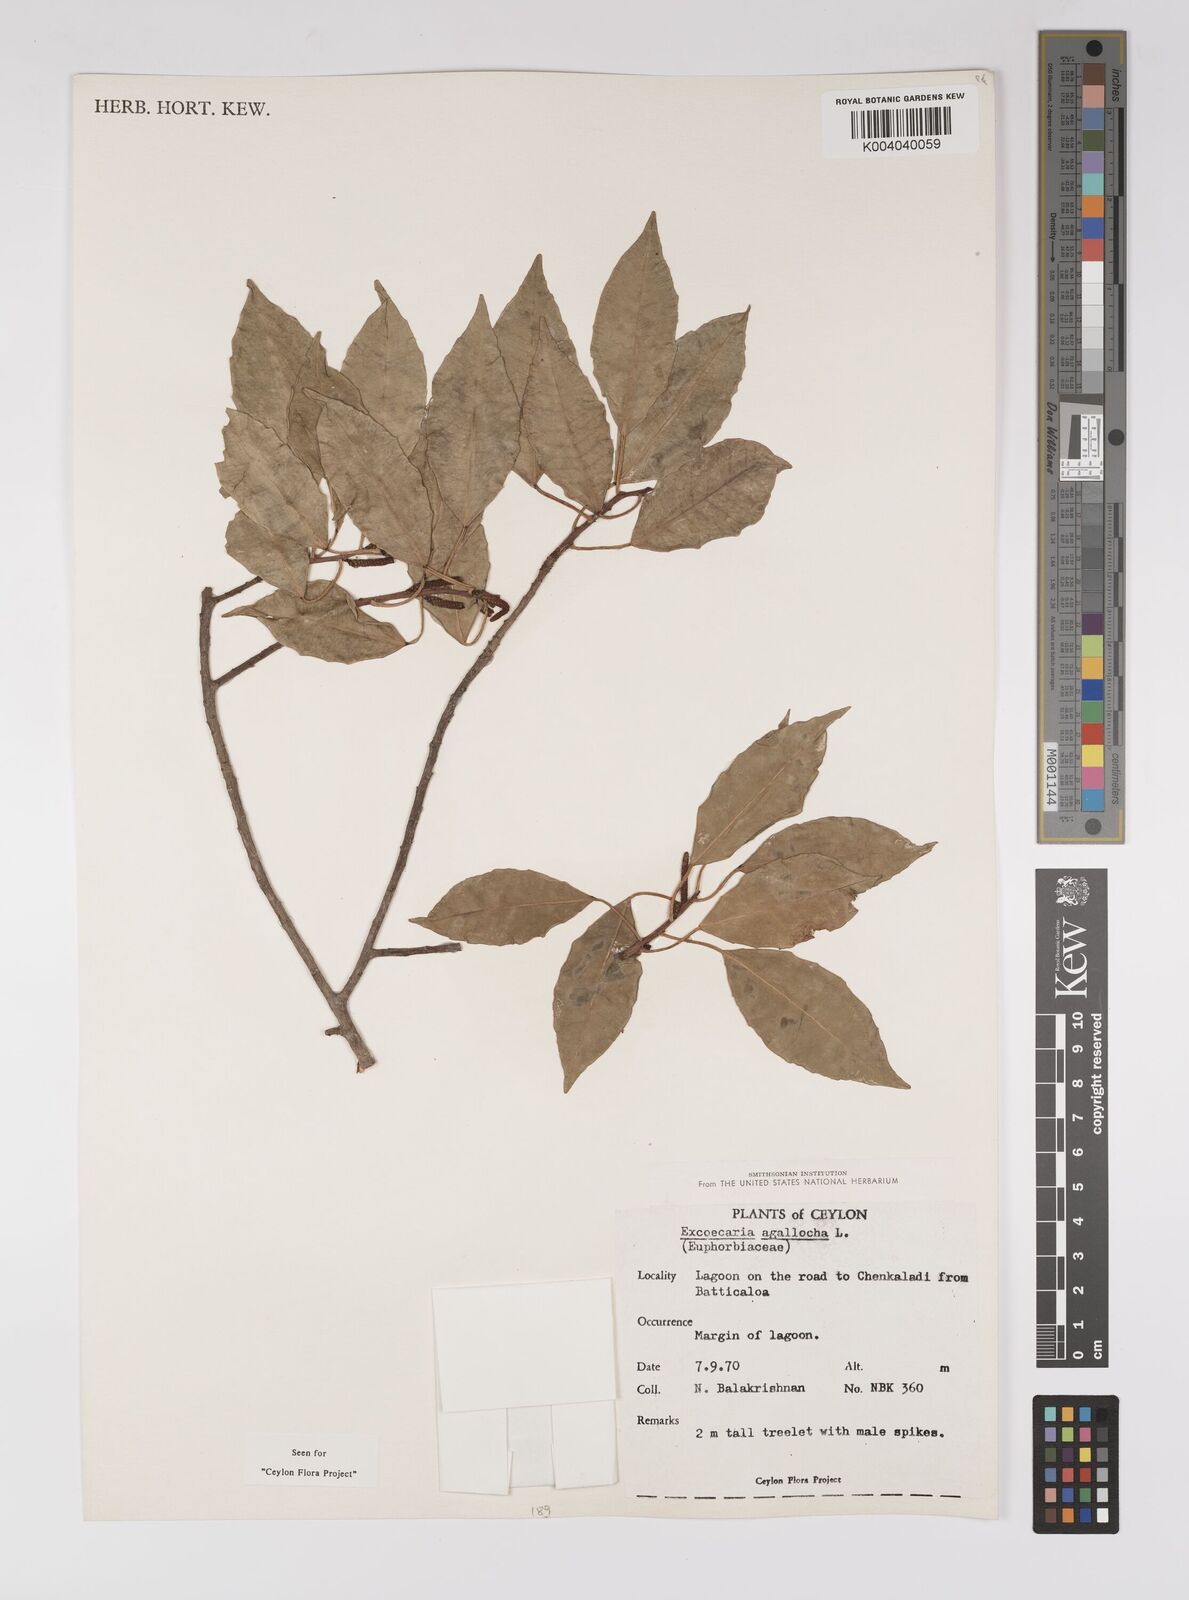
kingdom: Plantae
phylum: Tracheophyta
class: Magnoliopsida
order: Malpighiales
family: Euphorbiaceae
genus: Excoecaria
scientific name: Excoecaria agallocha
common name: River poisontree
